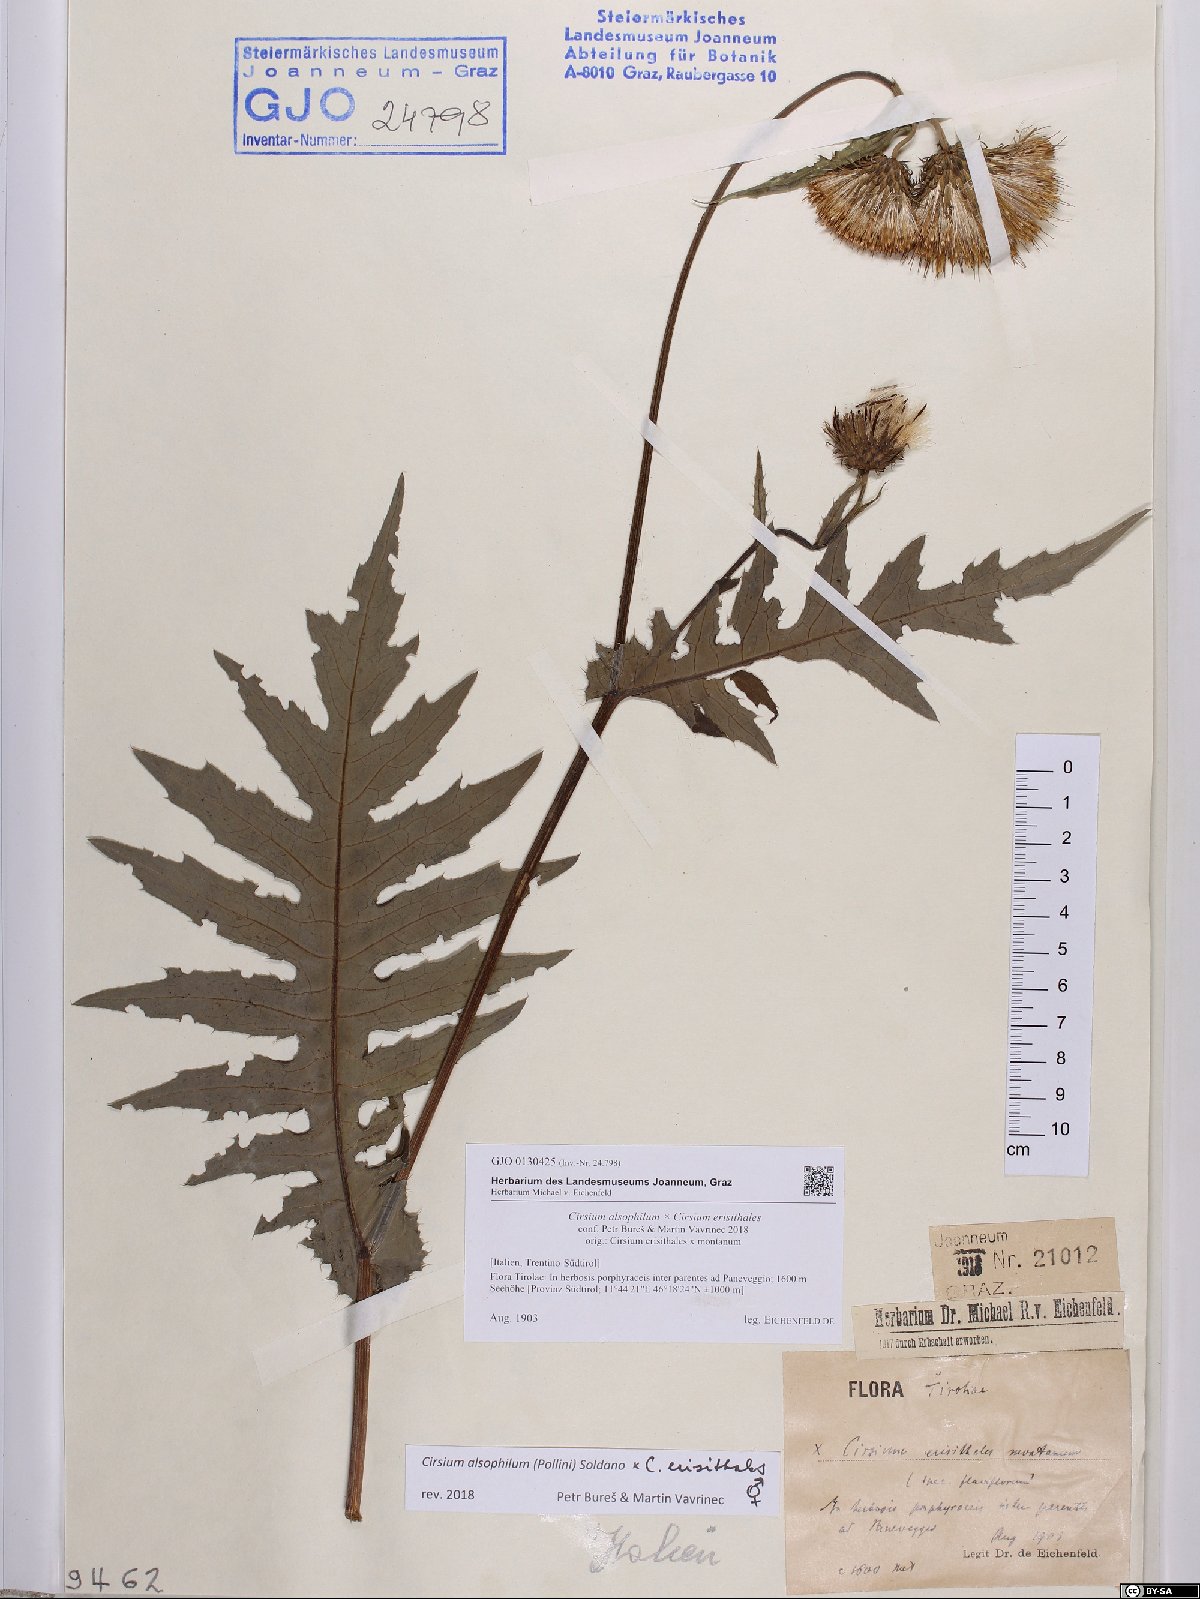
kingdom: Plantae
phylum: Tracheophyta
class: Magnoliopsida
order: Asterales
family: Asteraceae
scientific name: Asteraceae
